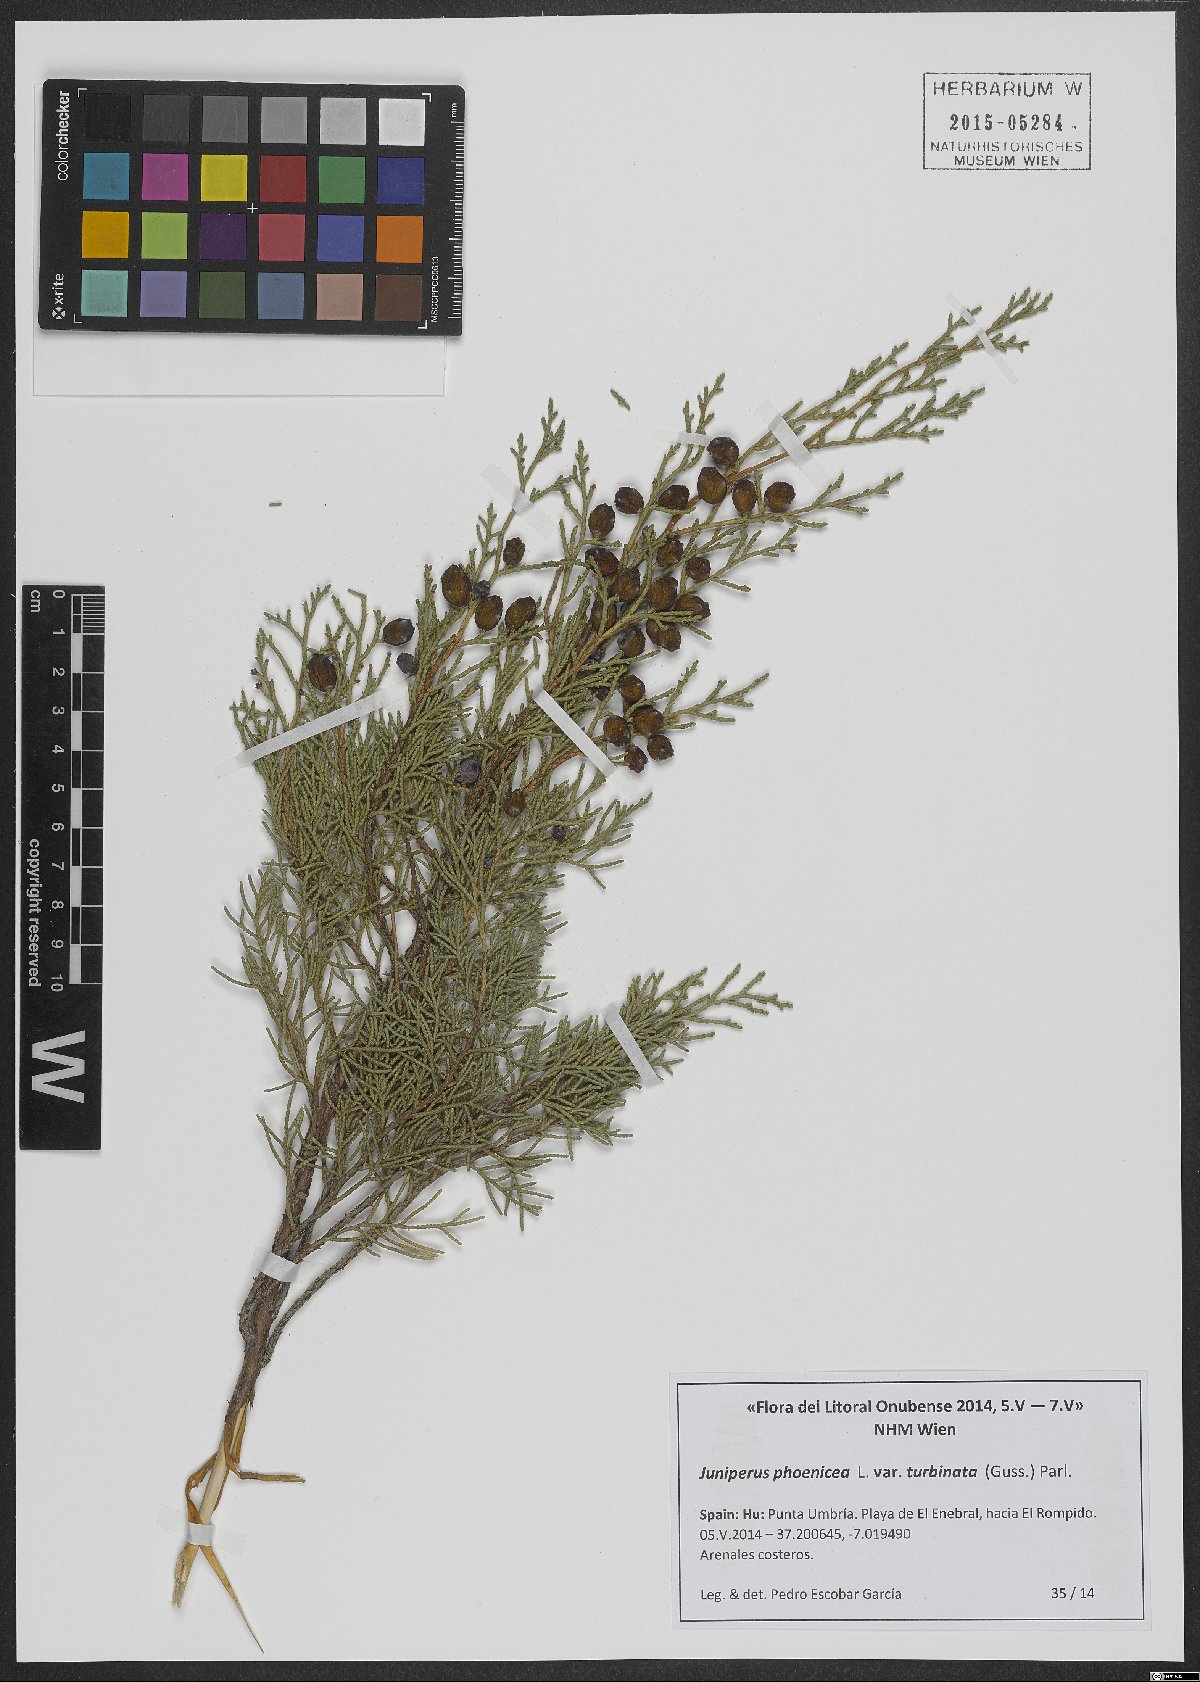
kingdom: Plantae
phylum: Tracheophyta
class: Pinopsida
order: Pinales
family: Cupressaceae
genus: Juniperus
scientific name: Juniperus phoenicea
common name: Phoenician juniper
